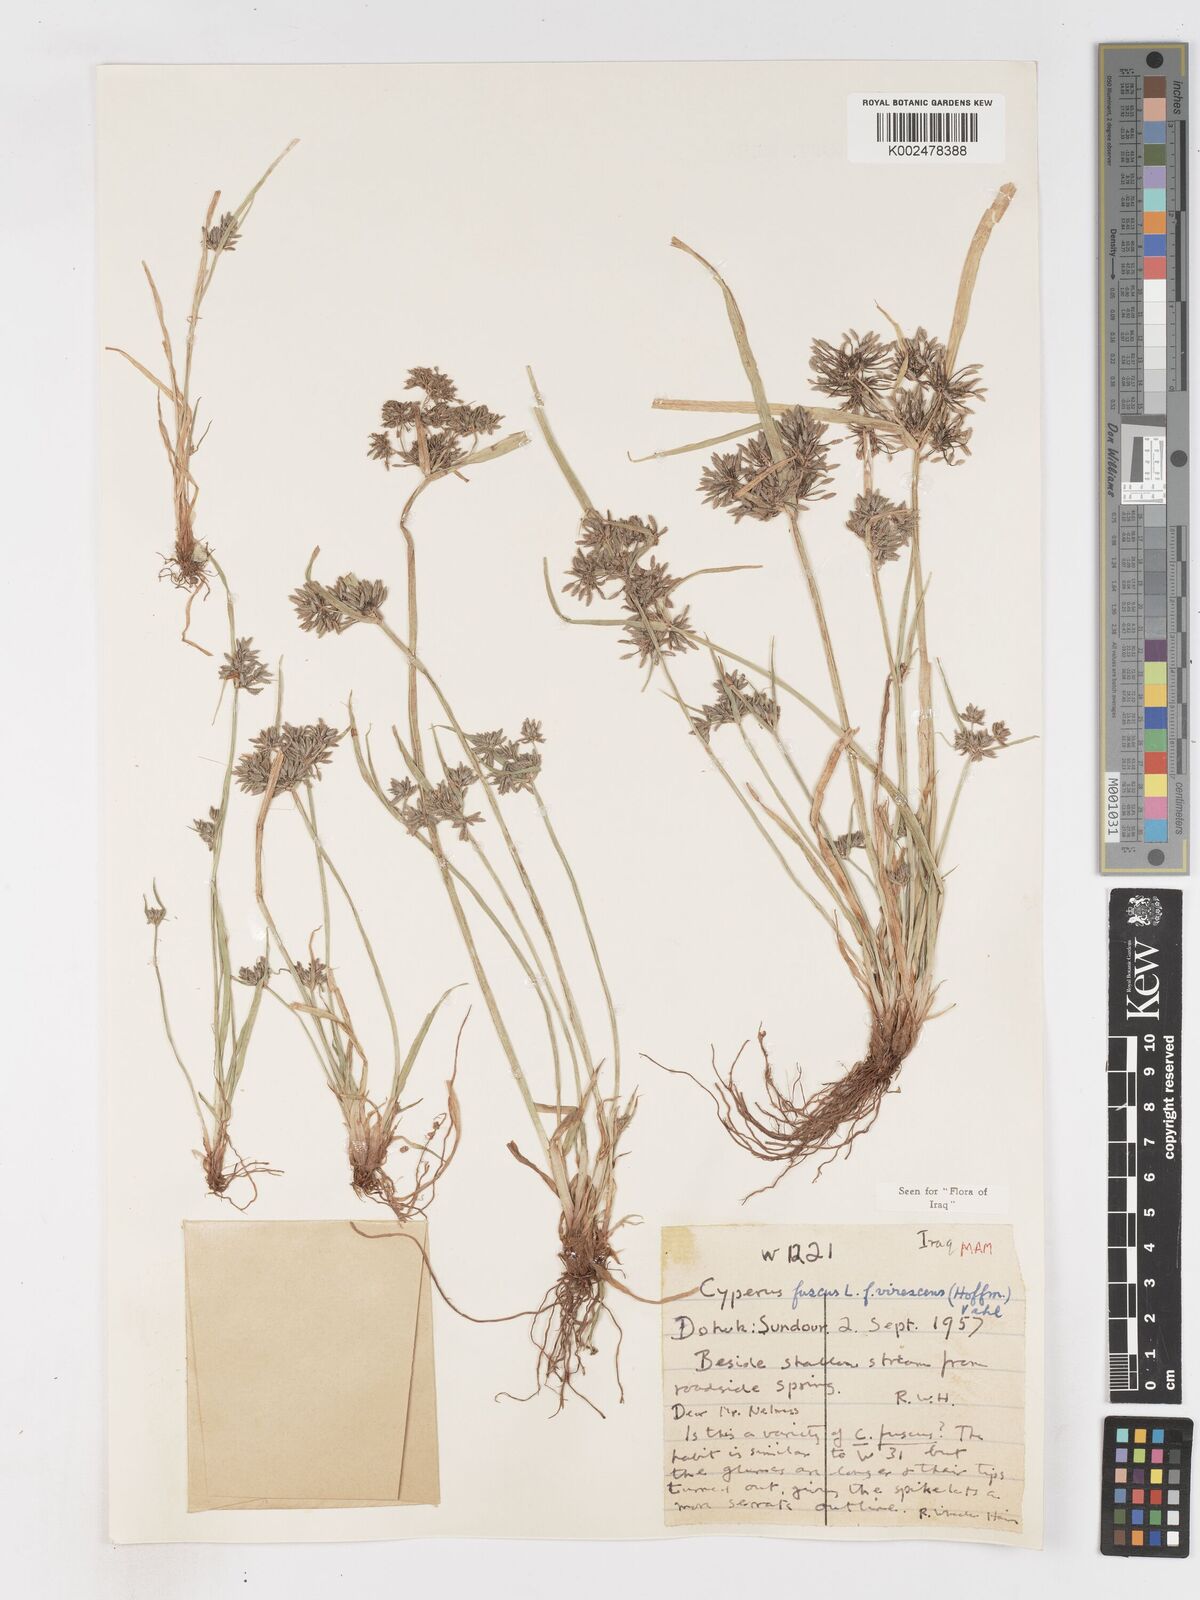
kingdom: Plantae
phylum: Tracheophyta
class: Liliopsida
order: Poales
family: Cyperaceae
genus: Cyperus
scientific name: Cyperus fuscus
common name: Brown galingale
